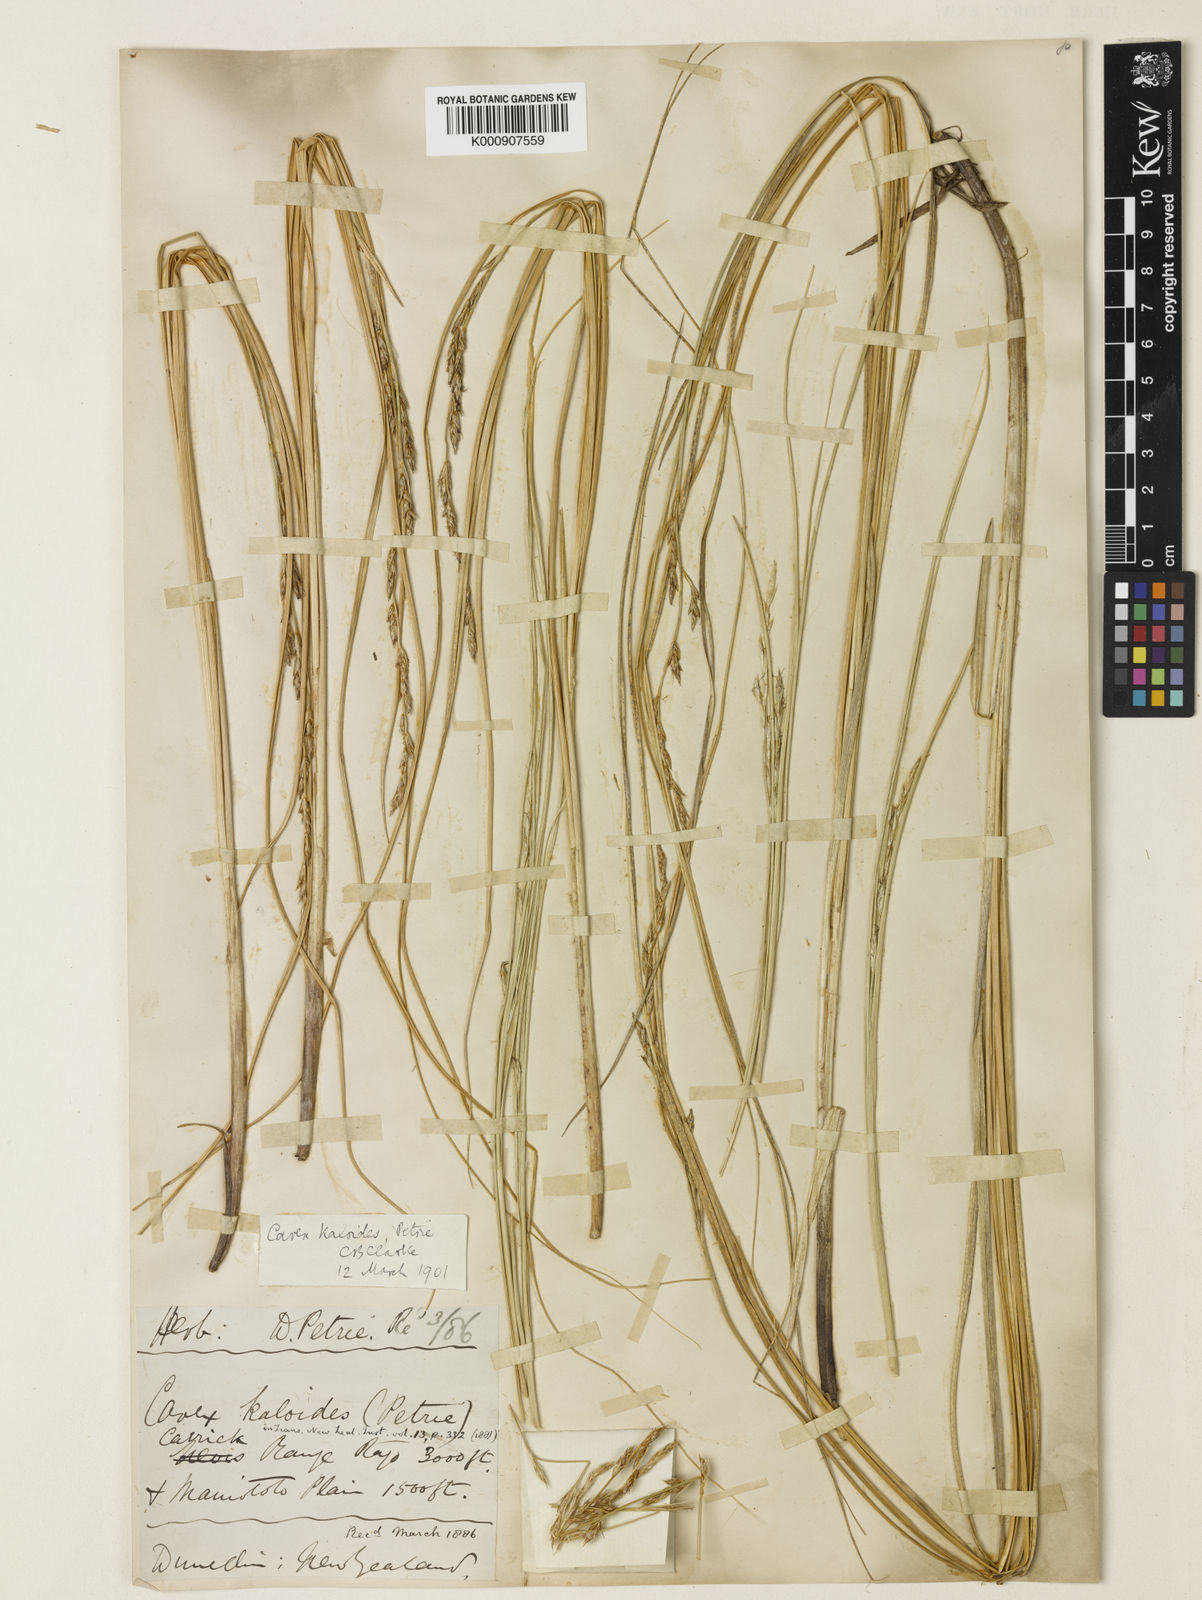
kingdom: Plantae
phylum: Tracheophyta
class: Liliopsida
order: Poales
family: Cyperaceae
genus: Carex
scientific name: Carex kaloides
